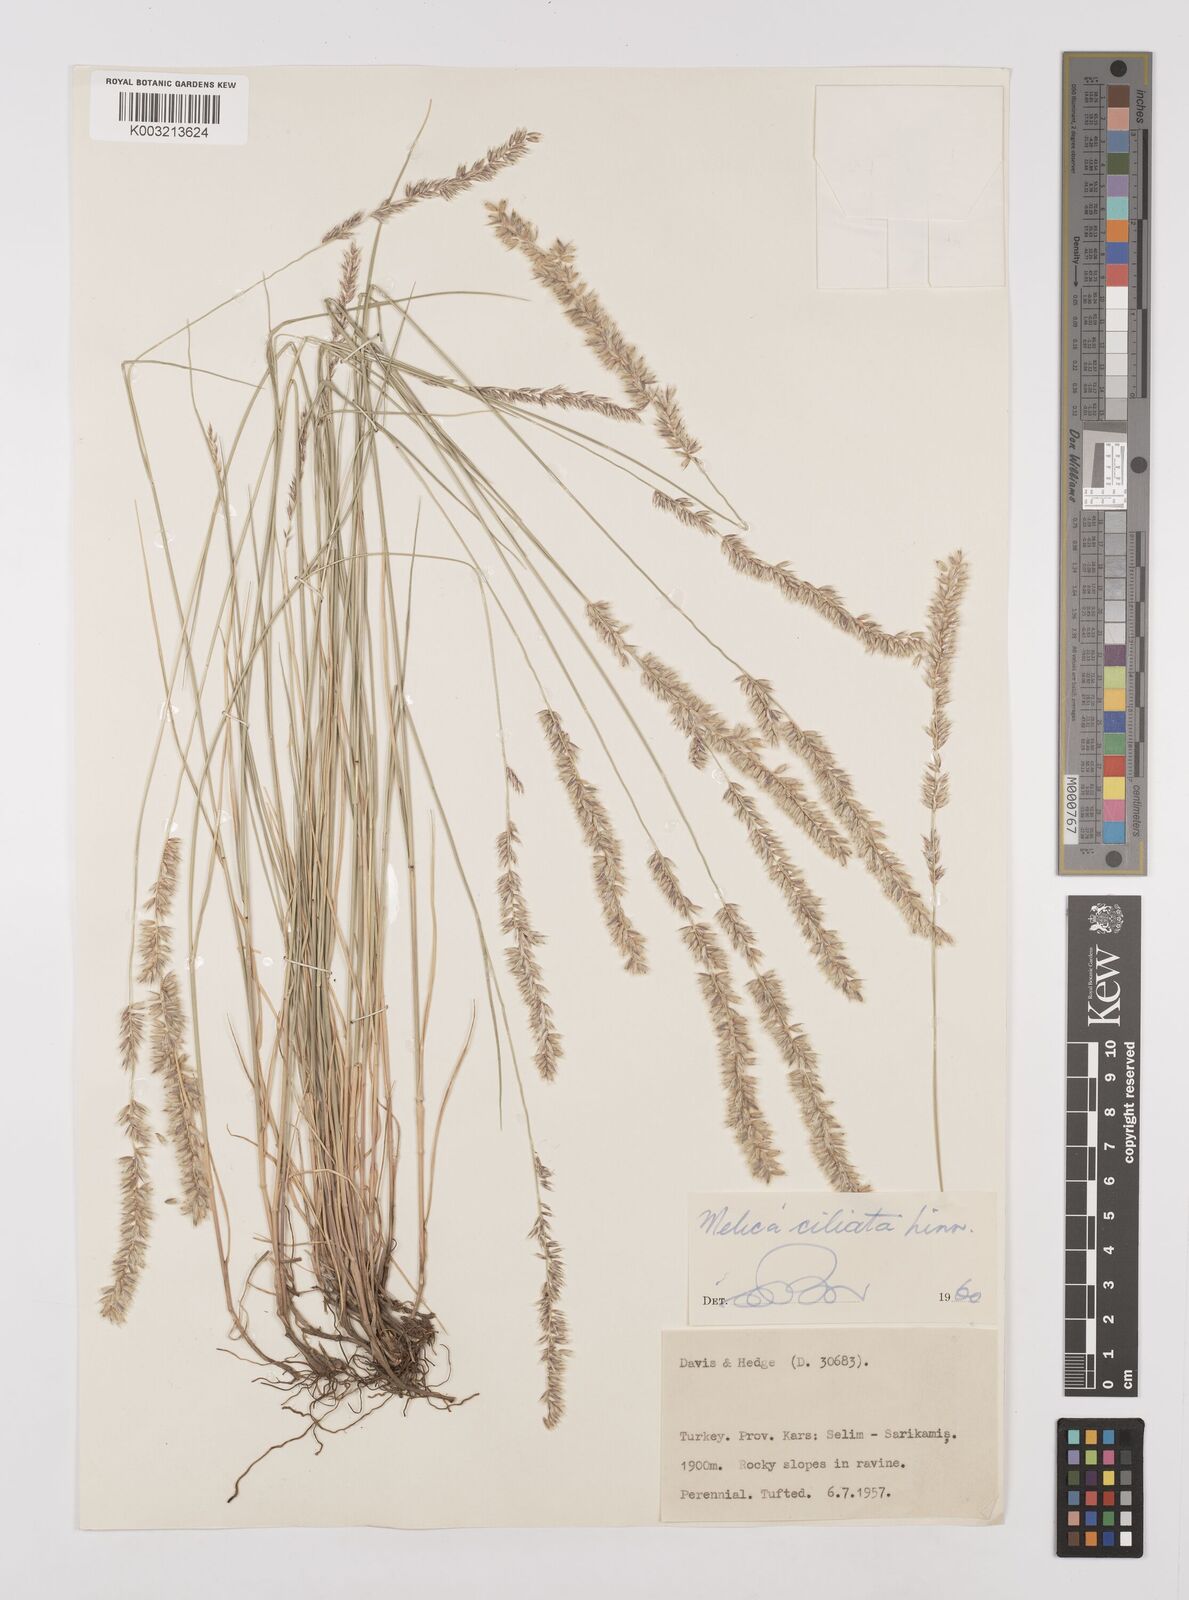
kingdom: Plantae
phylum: Tracheophyta
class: Liliopsida
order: Poales
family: Poaceae
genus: Melica
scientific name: Melica ciliata
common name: Hairy melicgrass
